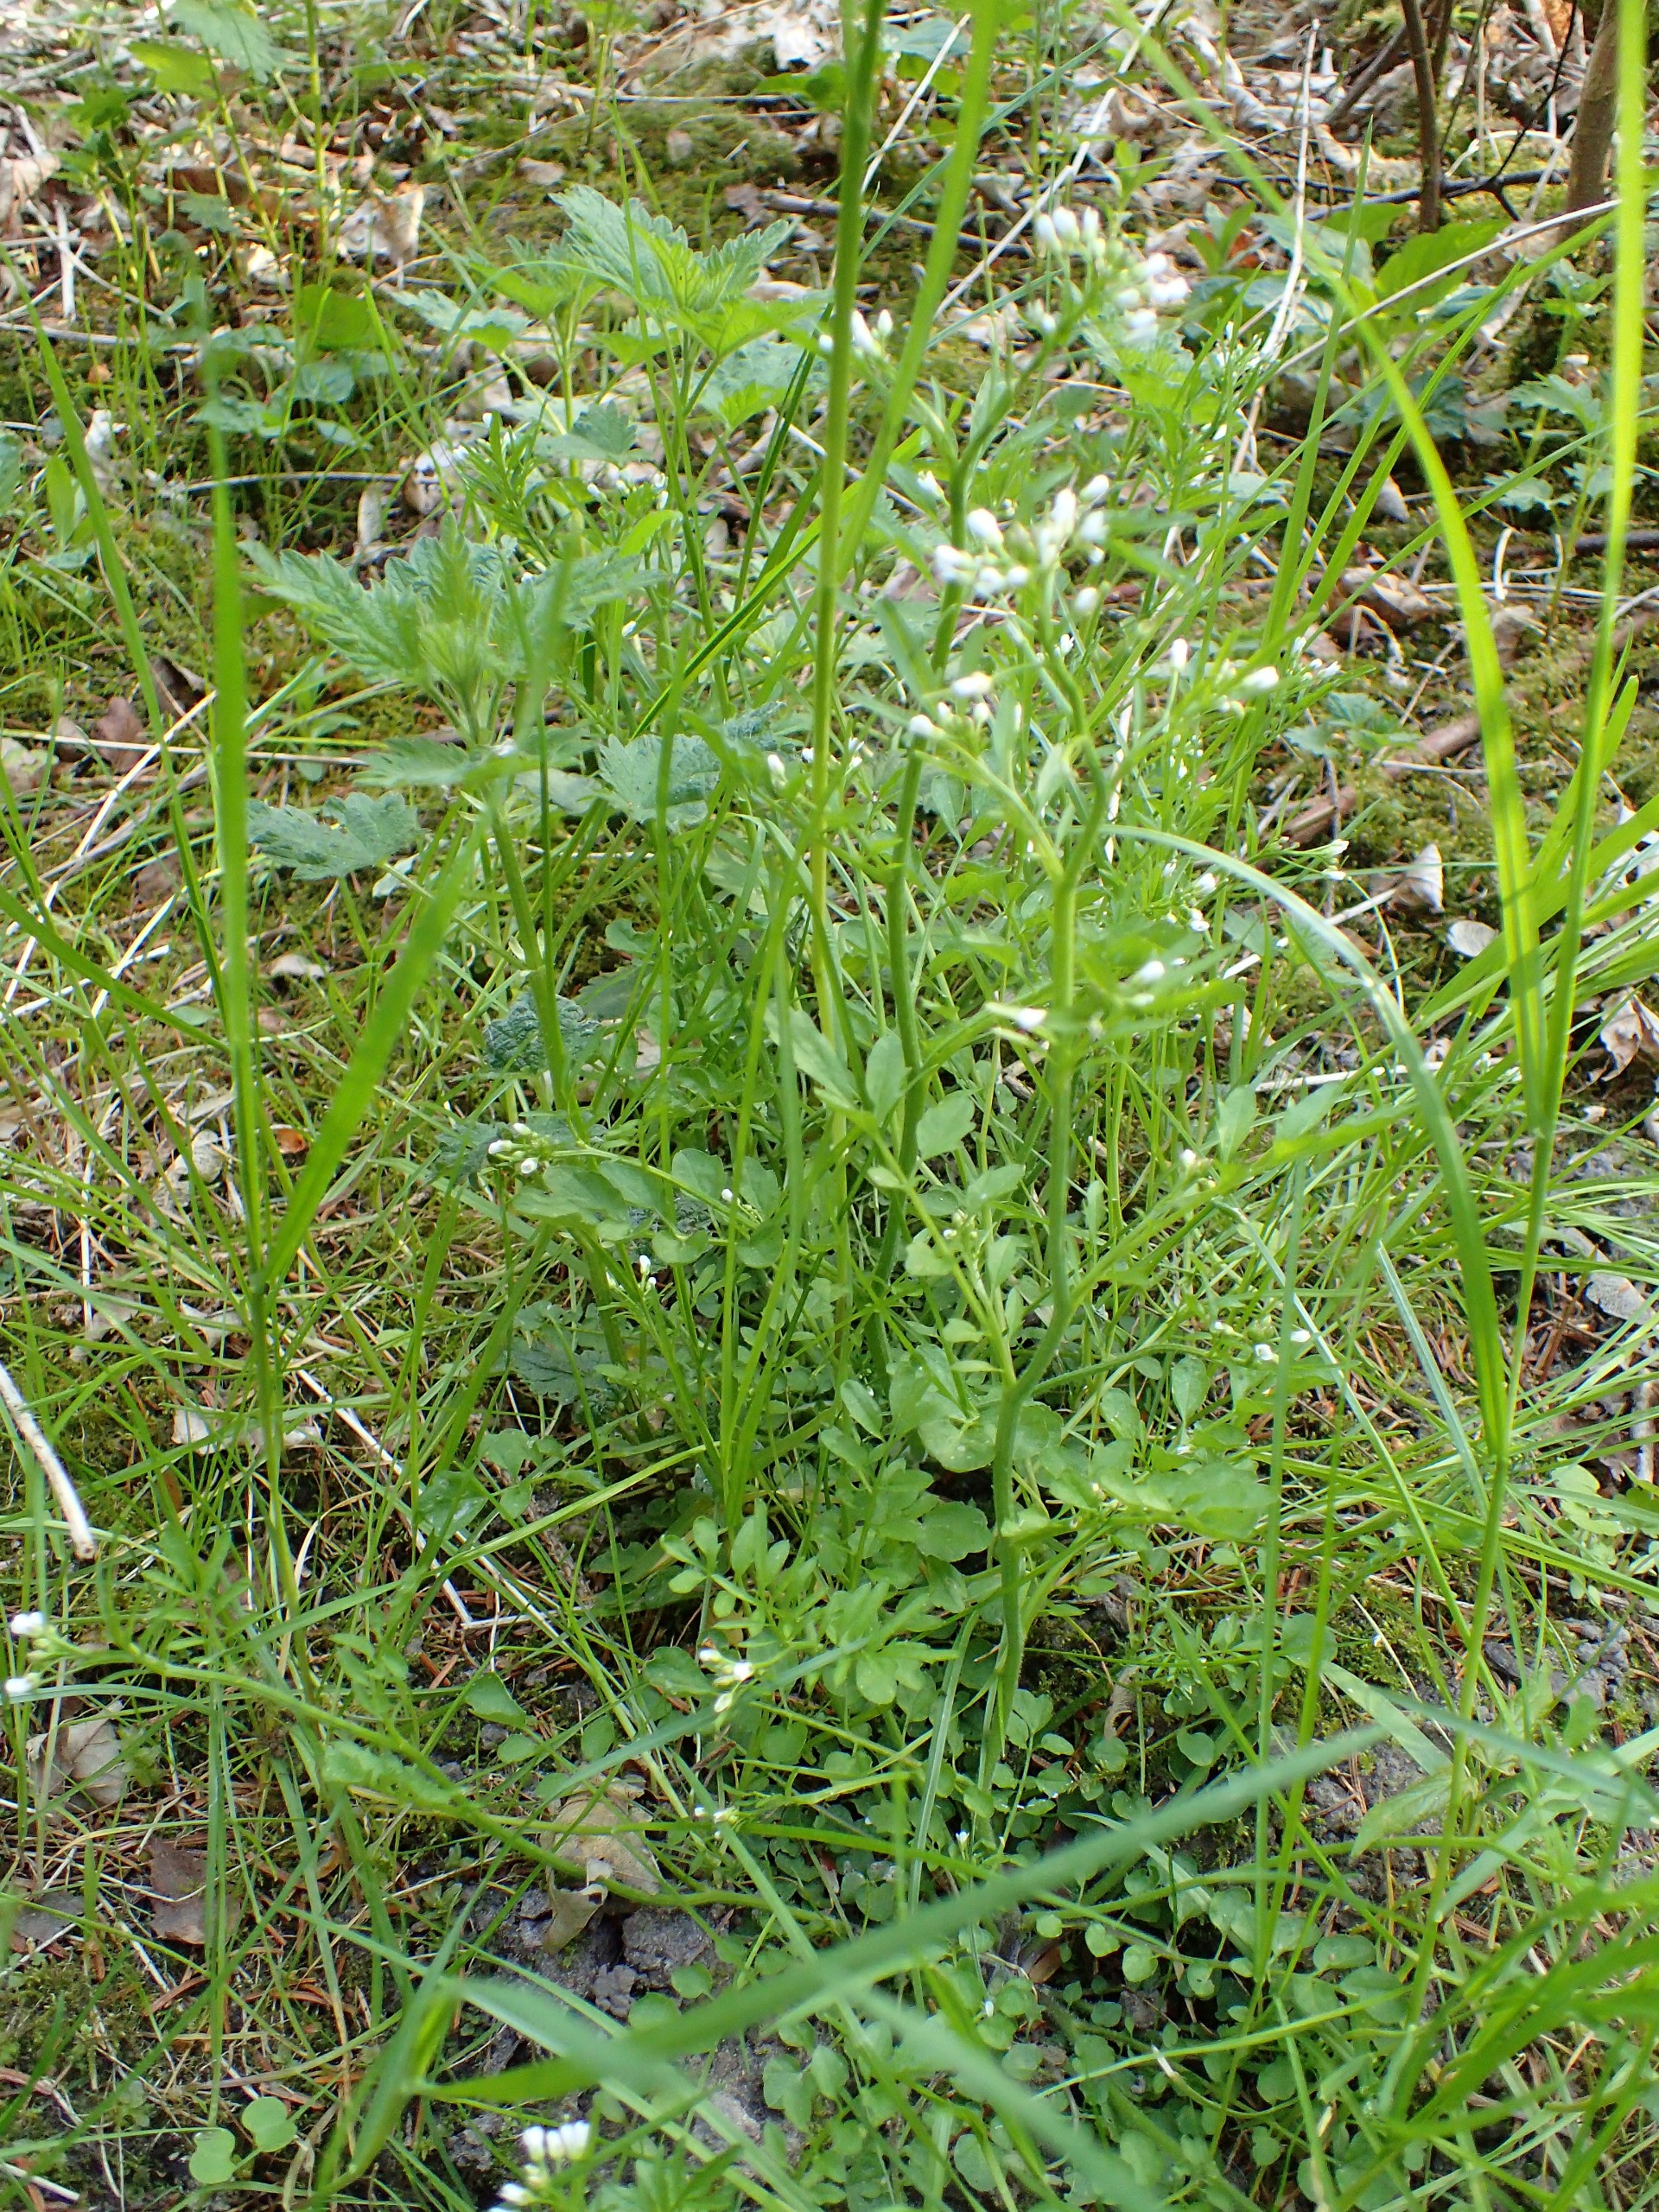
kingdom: Plantae
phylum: Tracheophyta
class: Magnoliopsida
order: Brassicales
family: Brassicaceae
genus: Cardamine
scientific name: Cardamine flexuosa
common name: Skov-springklap
